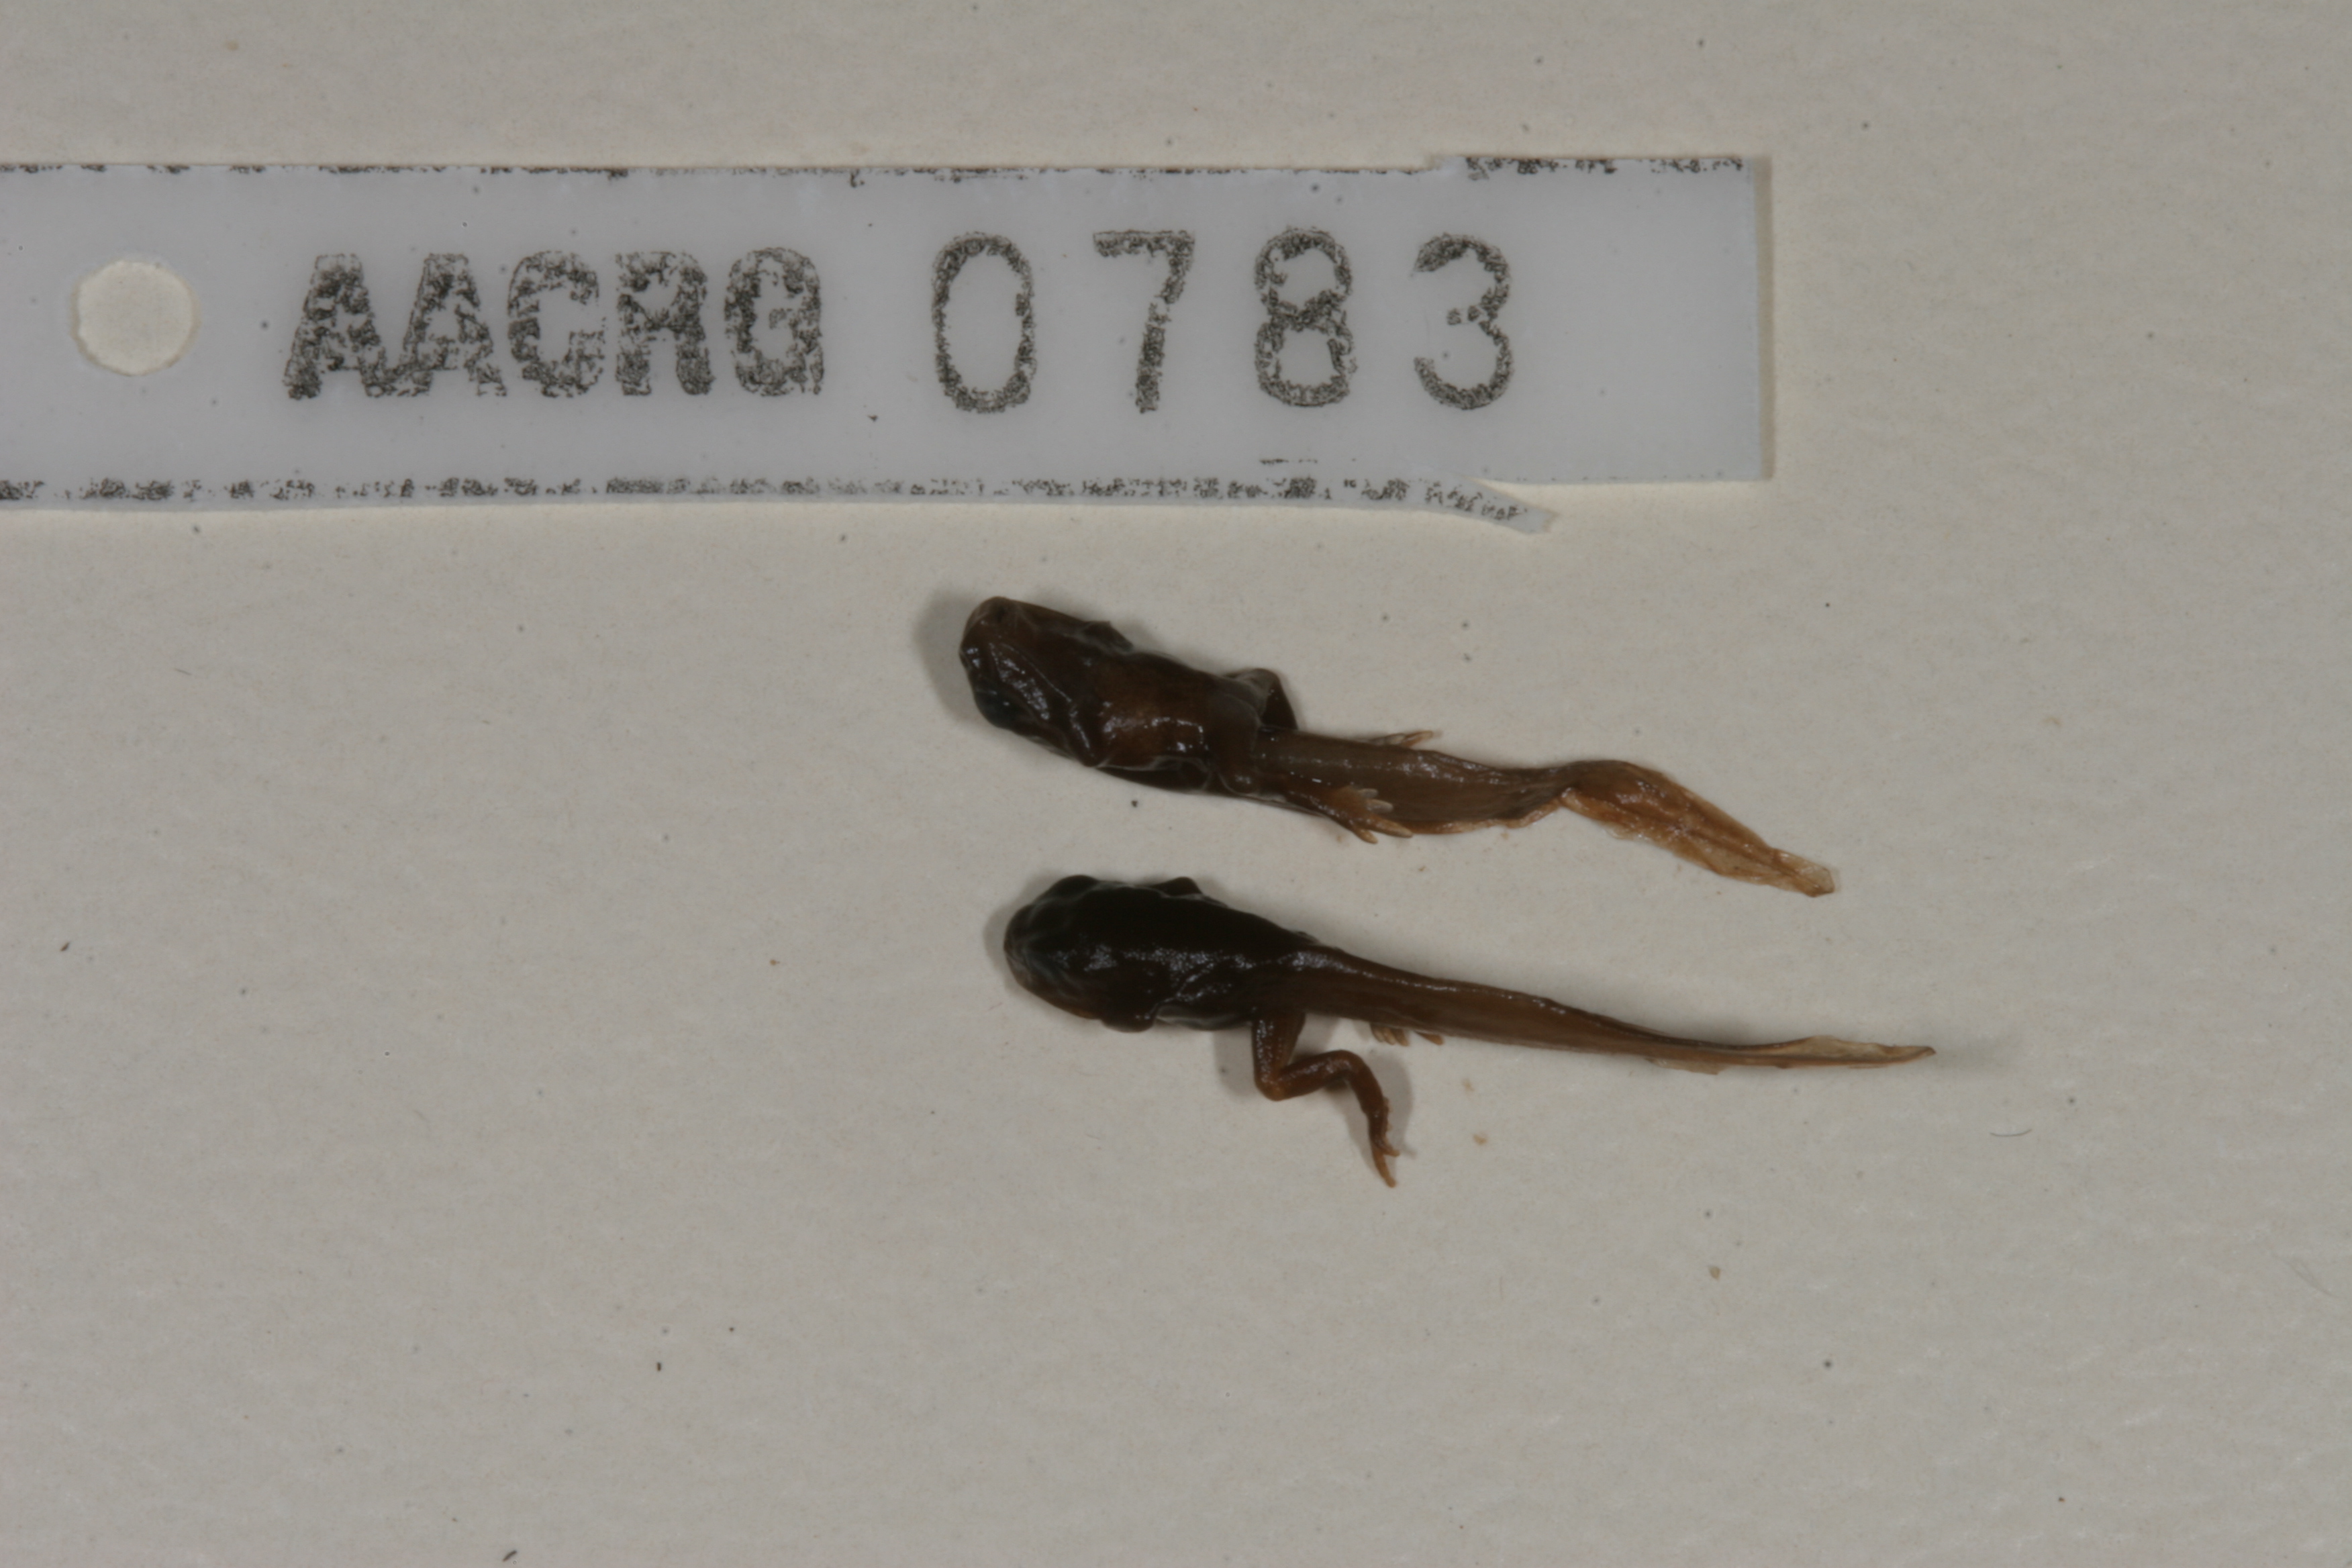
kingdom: Animalia
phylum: Chordata
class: Amphibia
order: Anura
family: Bufonidae
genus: Capensibufo
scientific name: Capensibufo rosei
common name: Cape mountain toad
